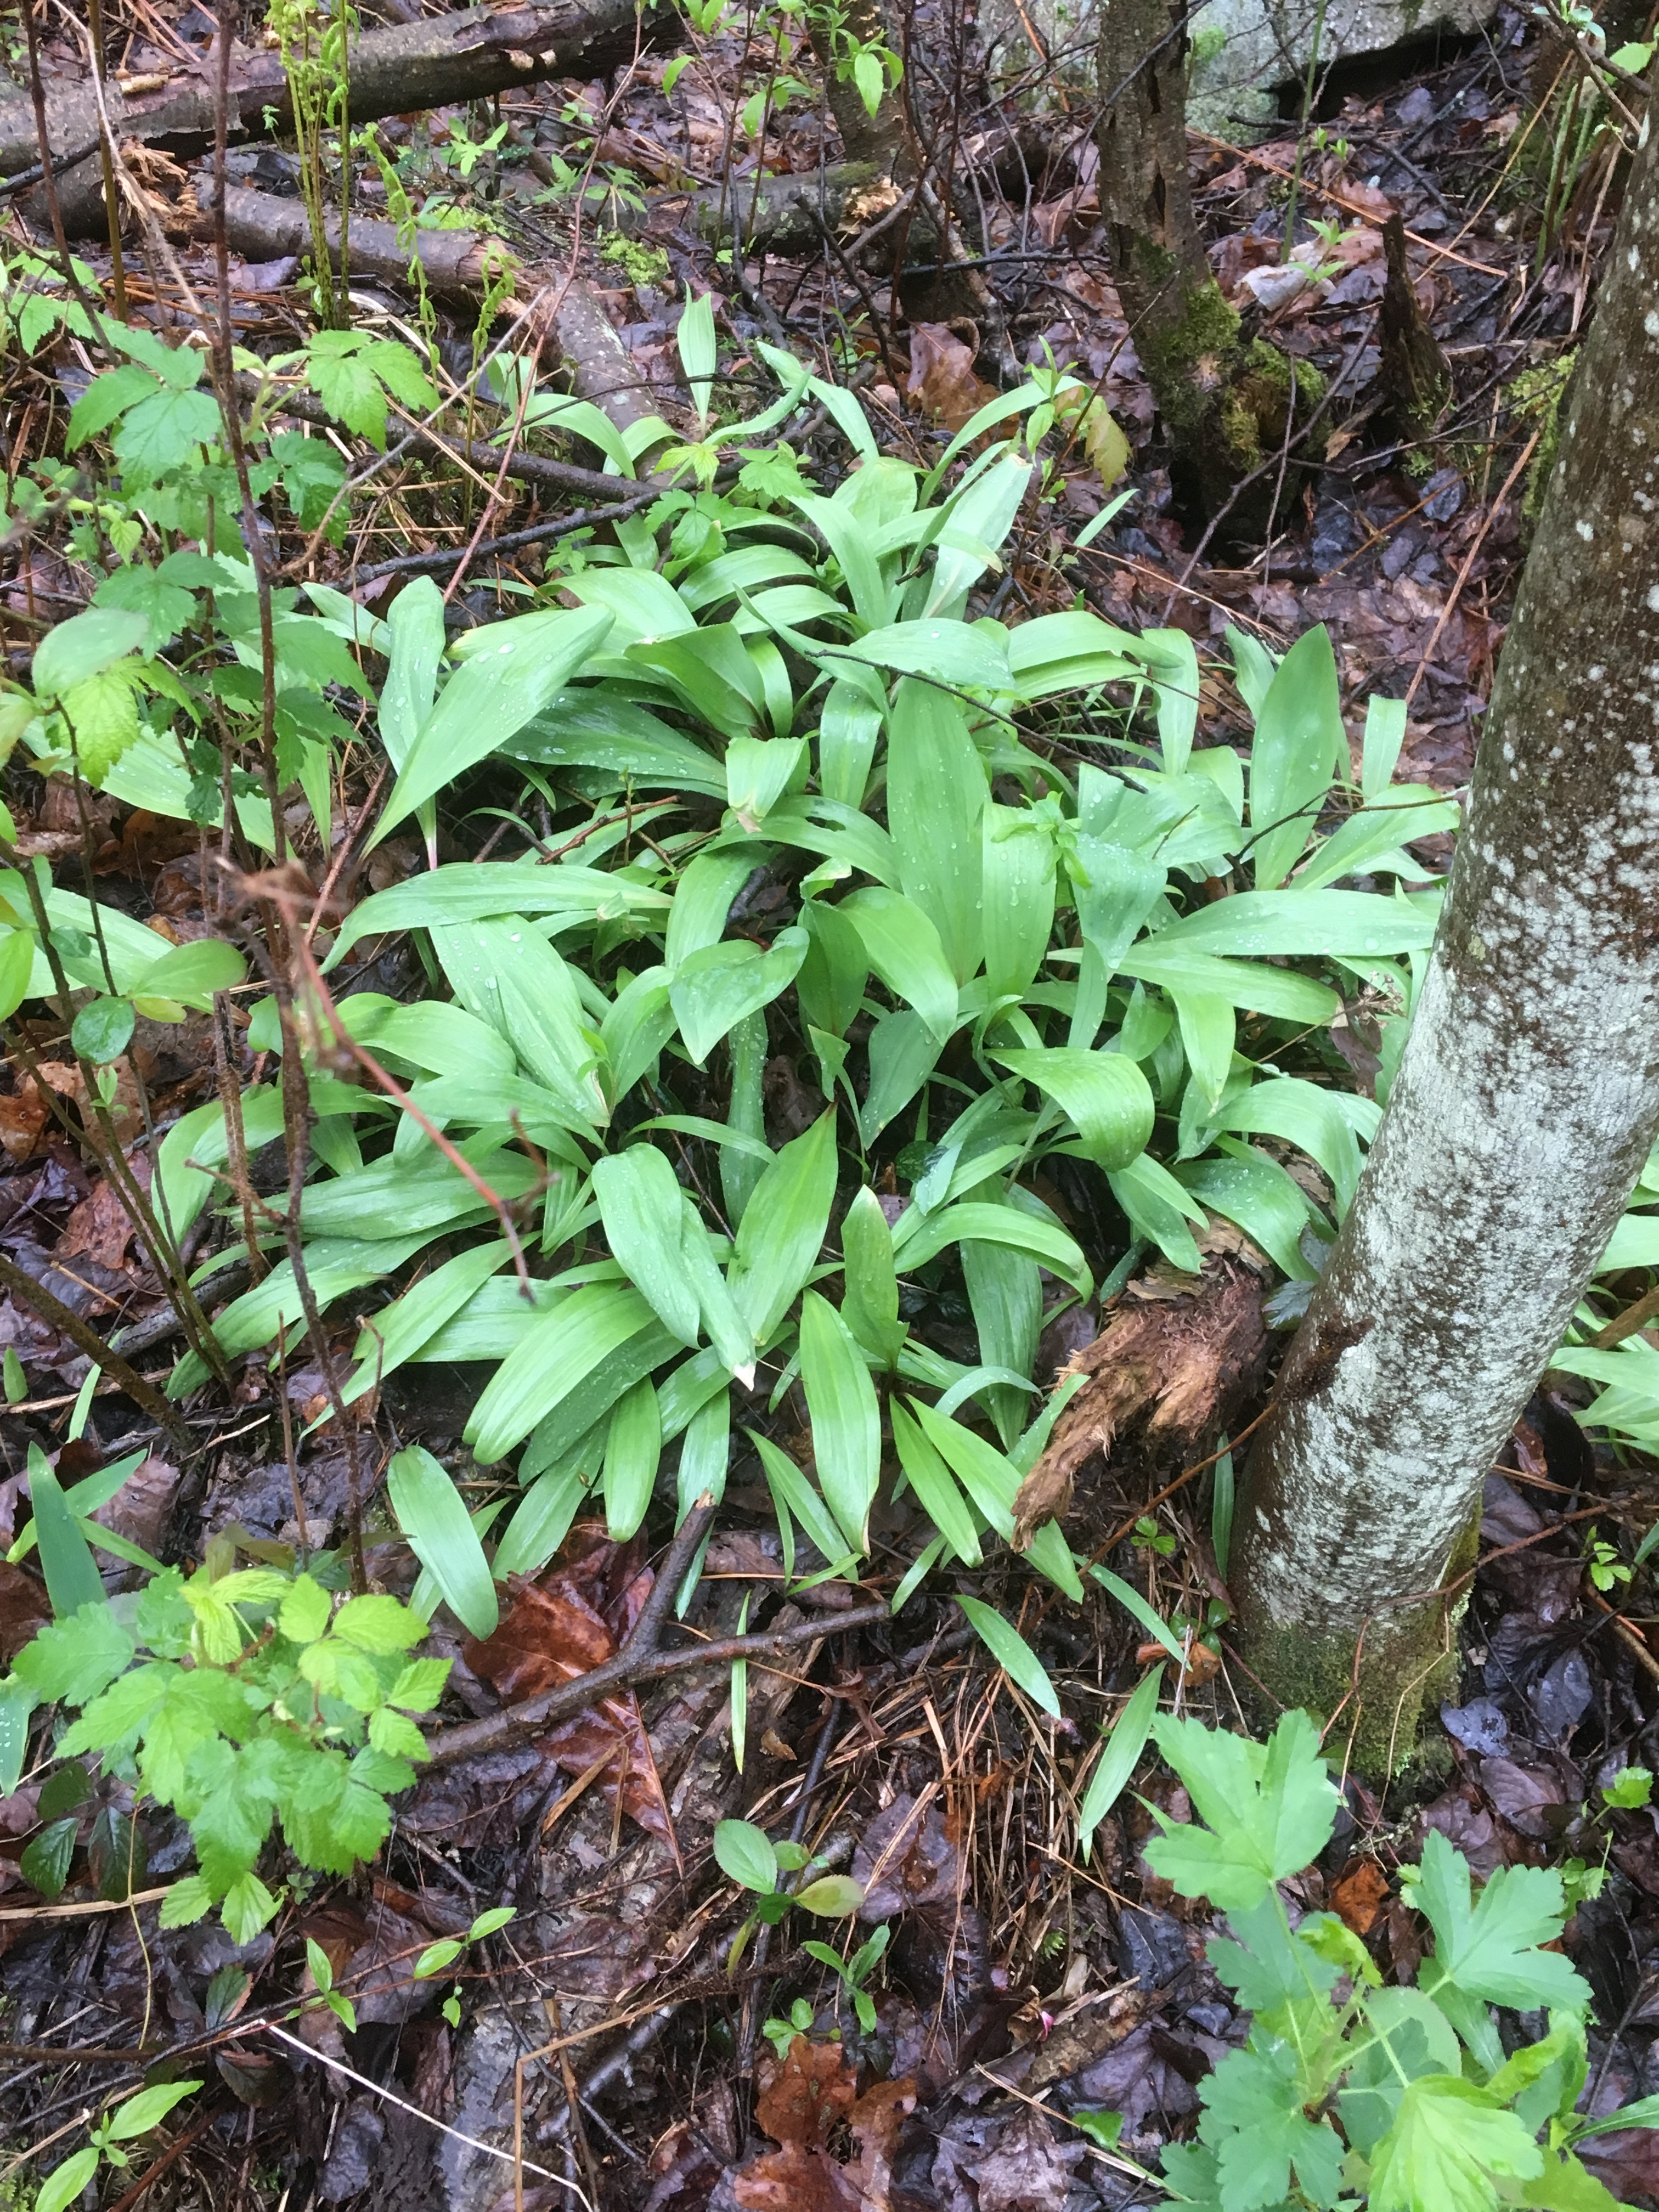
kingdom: Plantae
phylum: Tracheophyta
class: Liliopsida
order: Asparagales
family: Amaryllidaceae
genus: Allium
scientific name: Allium tricoccum
